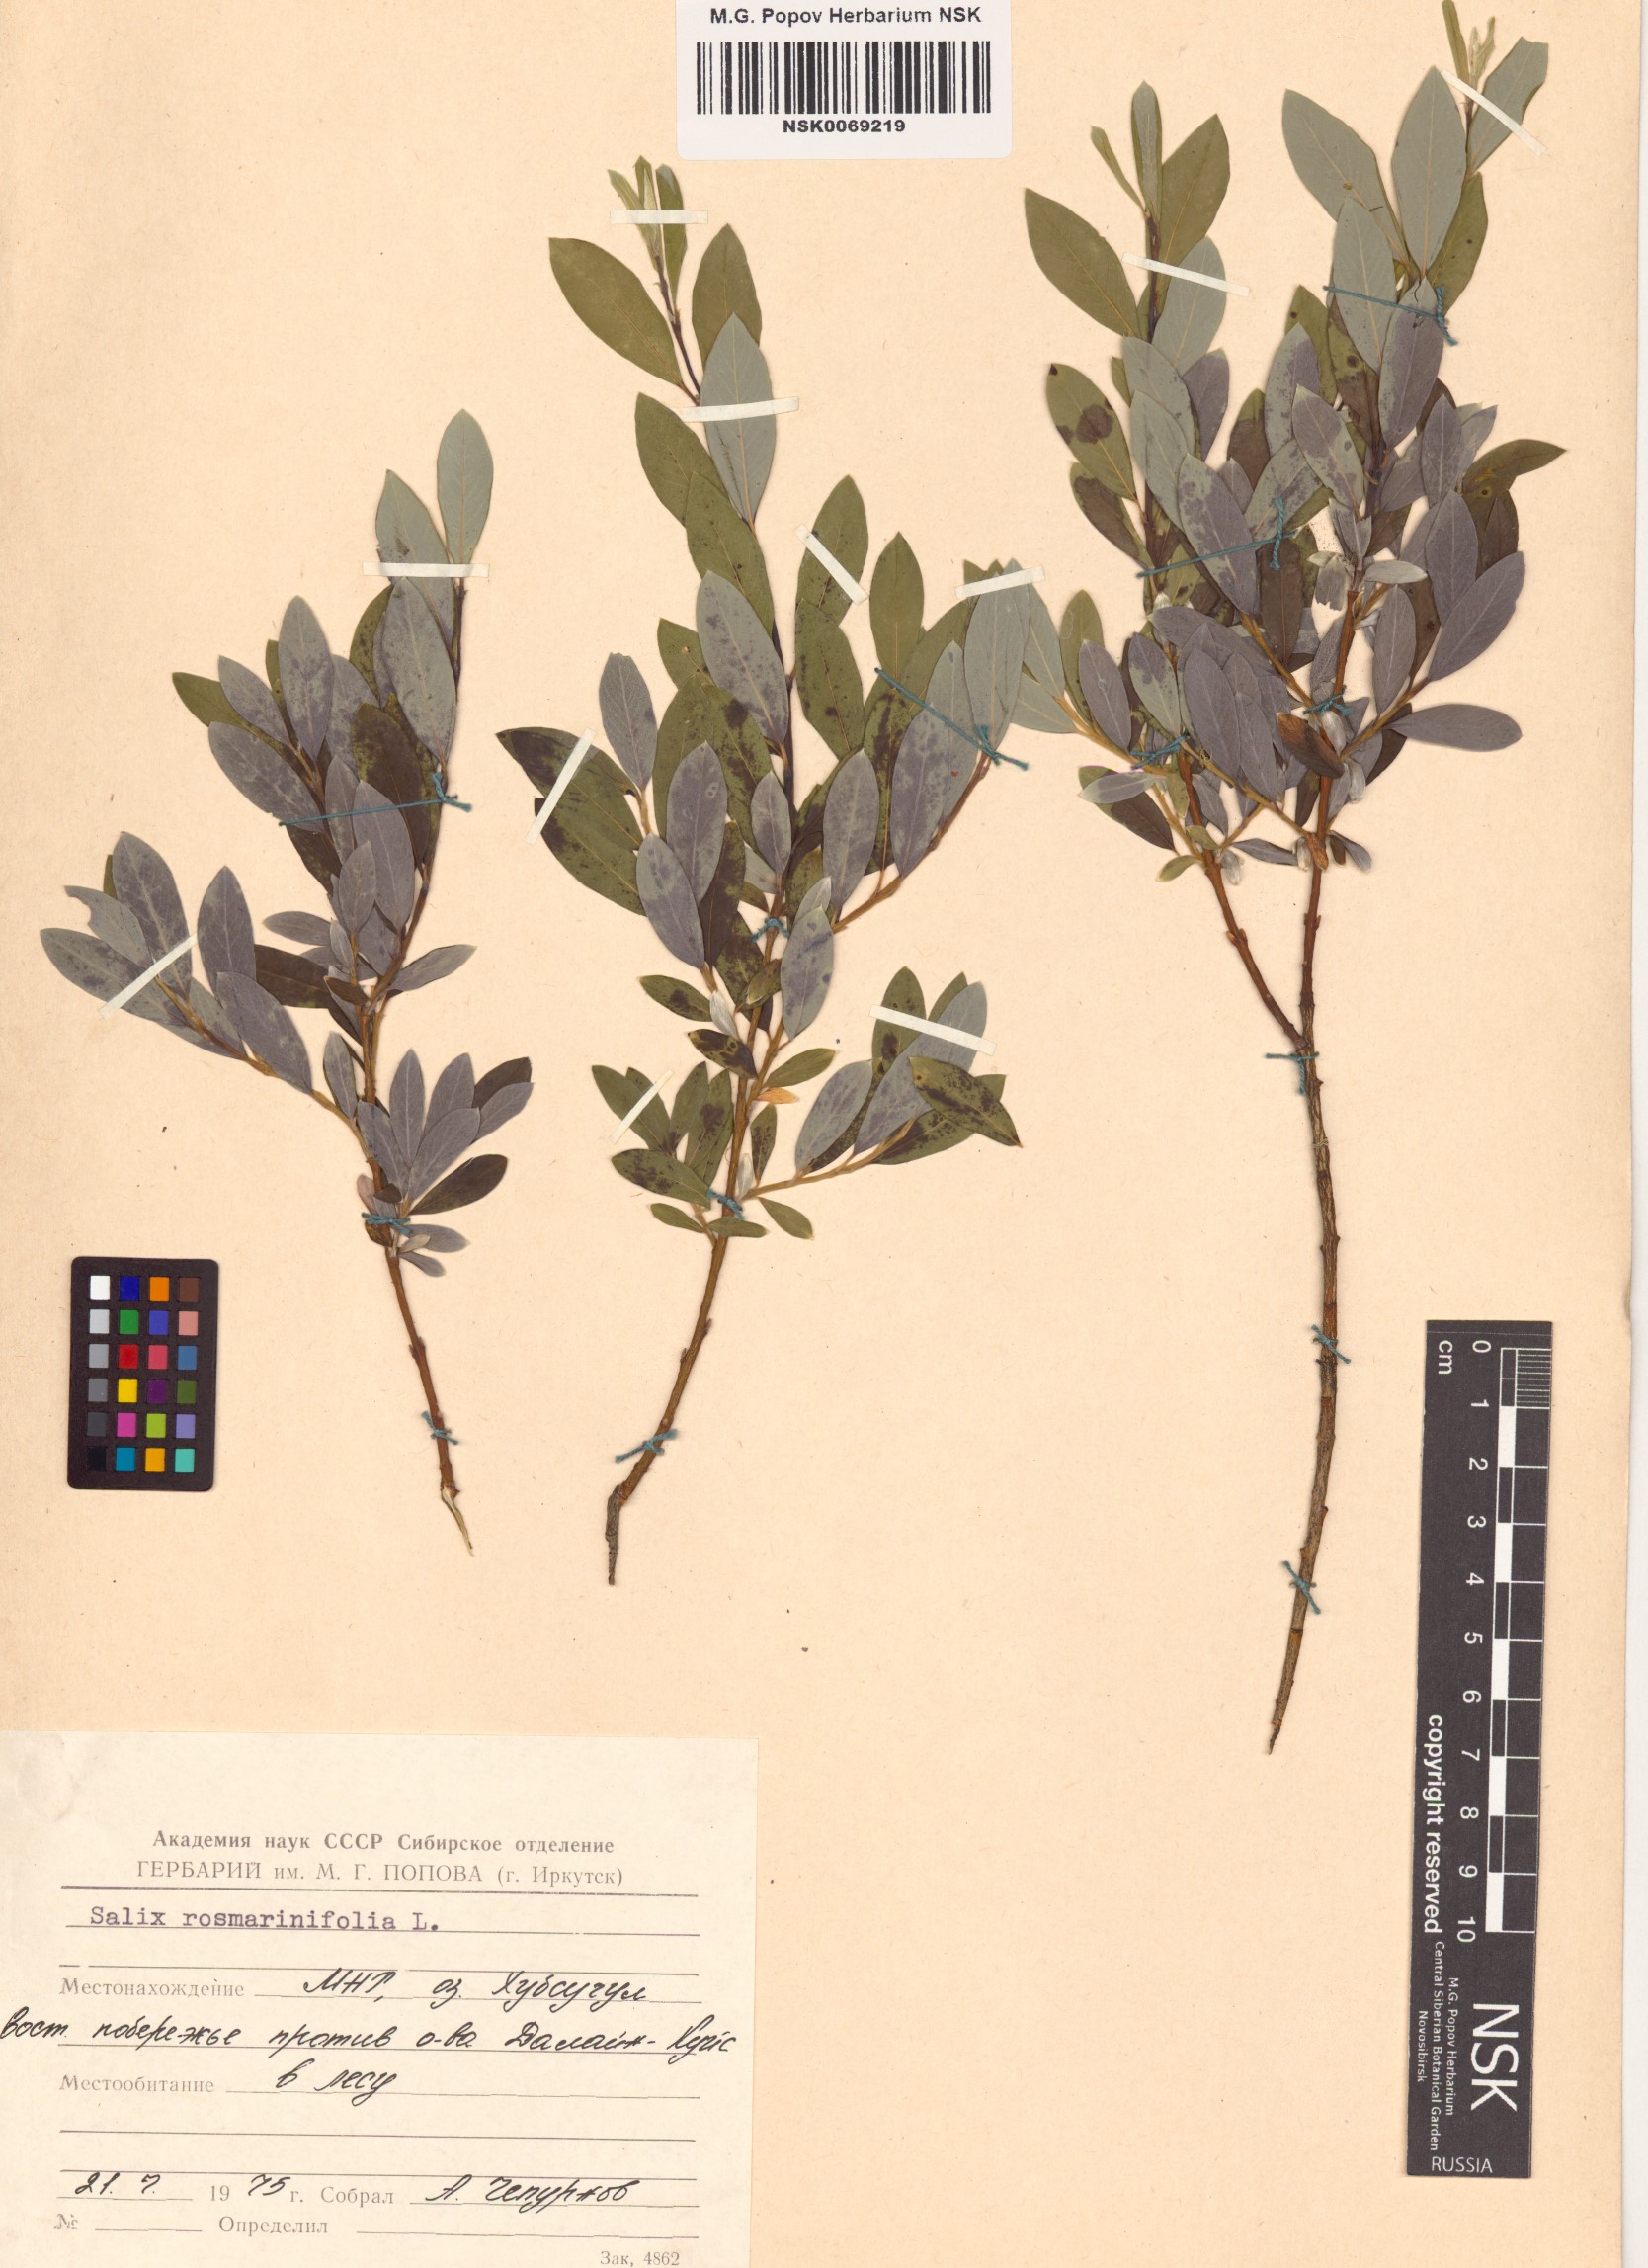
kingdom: Plantae
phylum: Tracheophyta
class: Magnoliopsida
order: Malpighiales
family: Salicaceae
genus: Salix
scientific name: Salix rosmarinifolia
